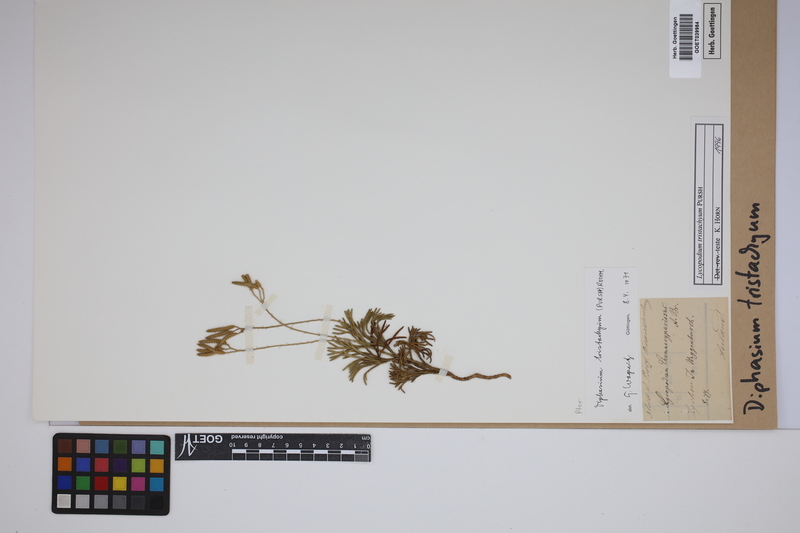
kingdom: Plantae
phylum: Tracheophyta
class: Lycopodiopsida
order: Lycopodiales
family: Lycopodiaceae
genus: Diphasiastrum
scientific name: Diphasiastrum tristachyum
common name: Blue ground-cedar
